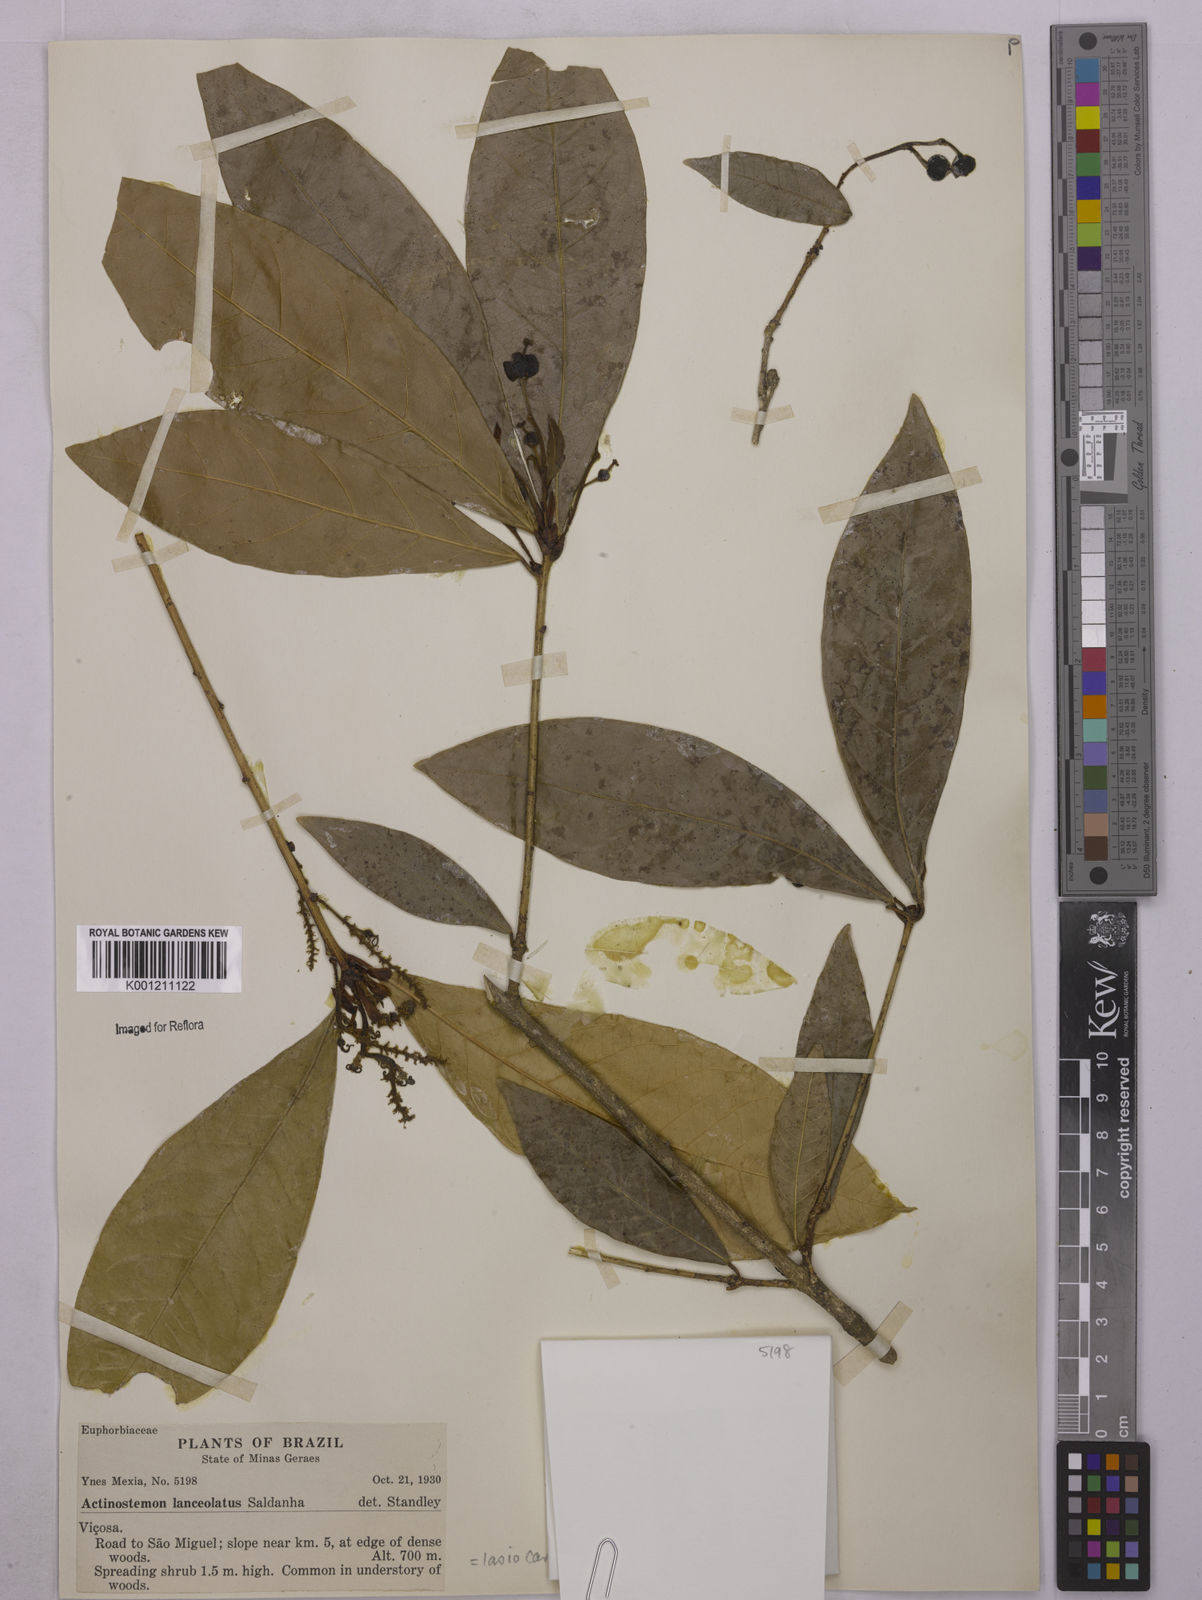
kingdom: Plantae
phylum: Tracheophyta
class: Magnoliopsida
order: Malpighiales
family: Euphorbiaceae
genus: Actinostemon
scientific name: Actinostemon
